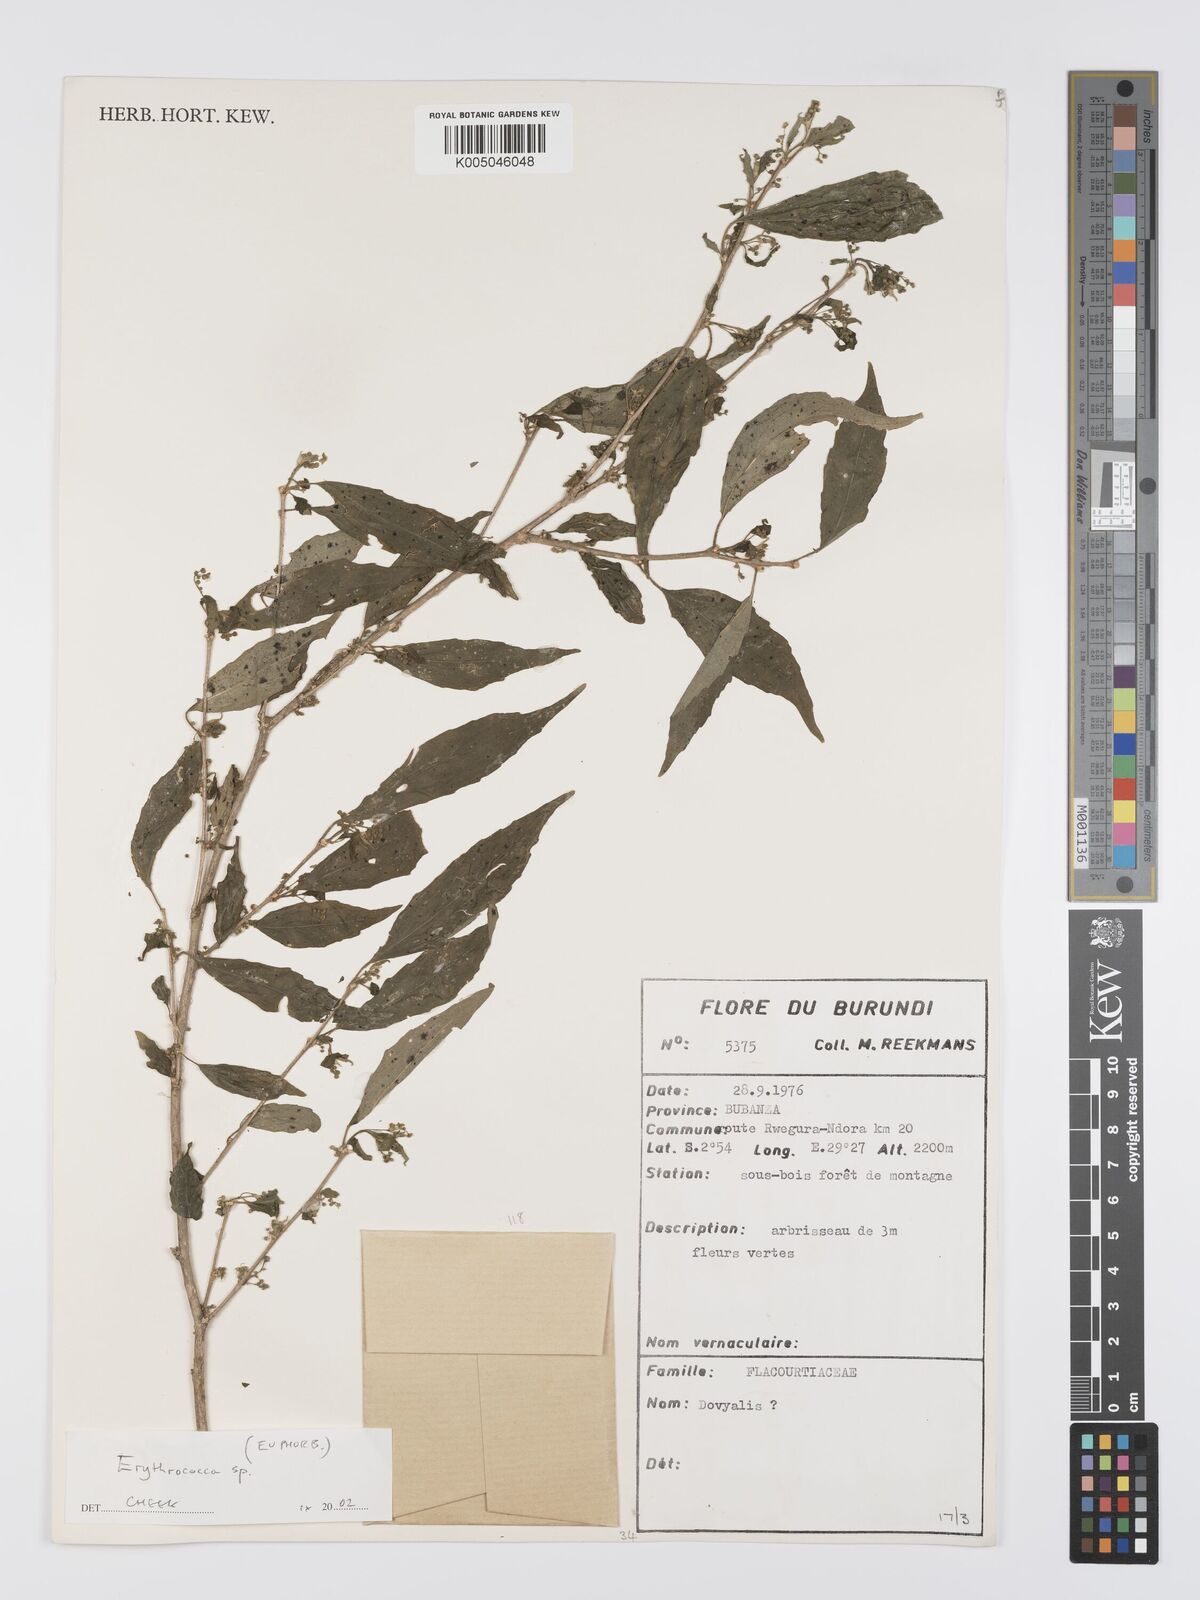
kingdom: Plantae
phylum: Tracheophyta
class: Magnoliopsida
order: Malpighiales
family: Euphorbiaceae
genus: Erythrococca
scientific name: Erythrococca
